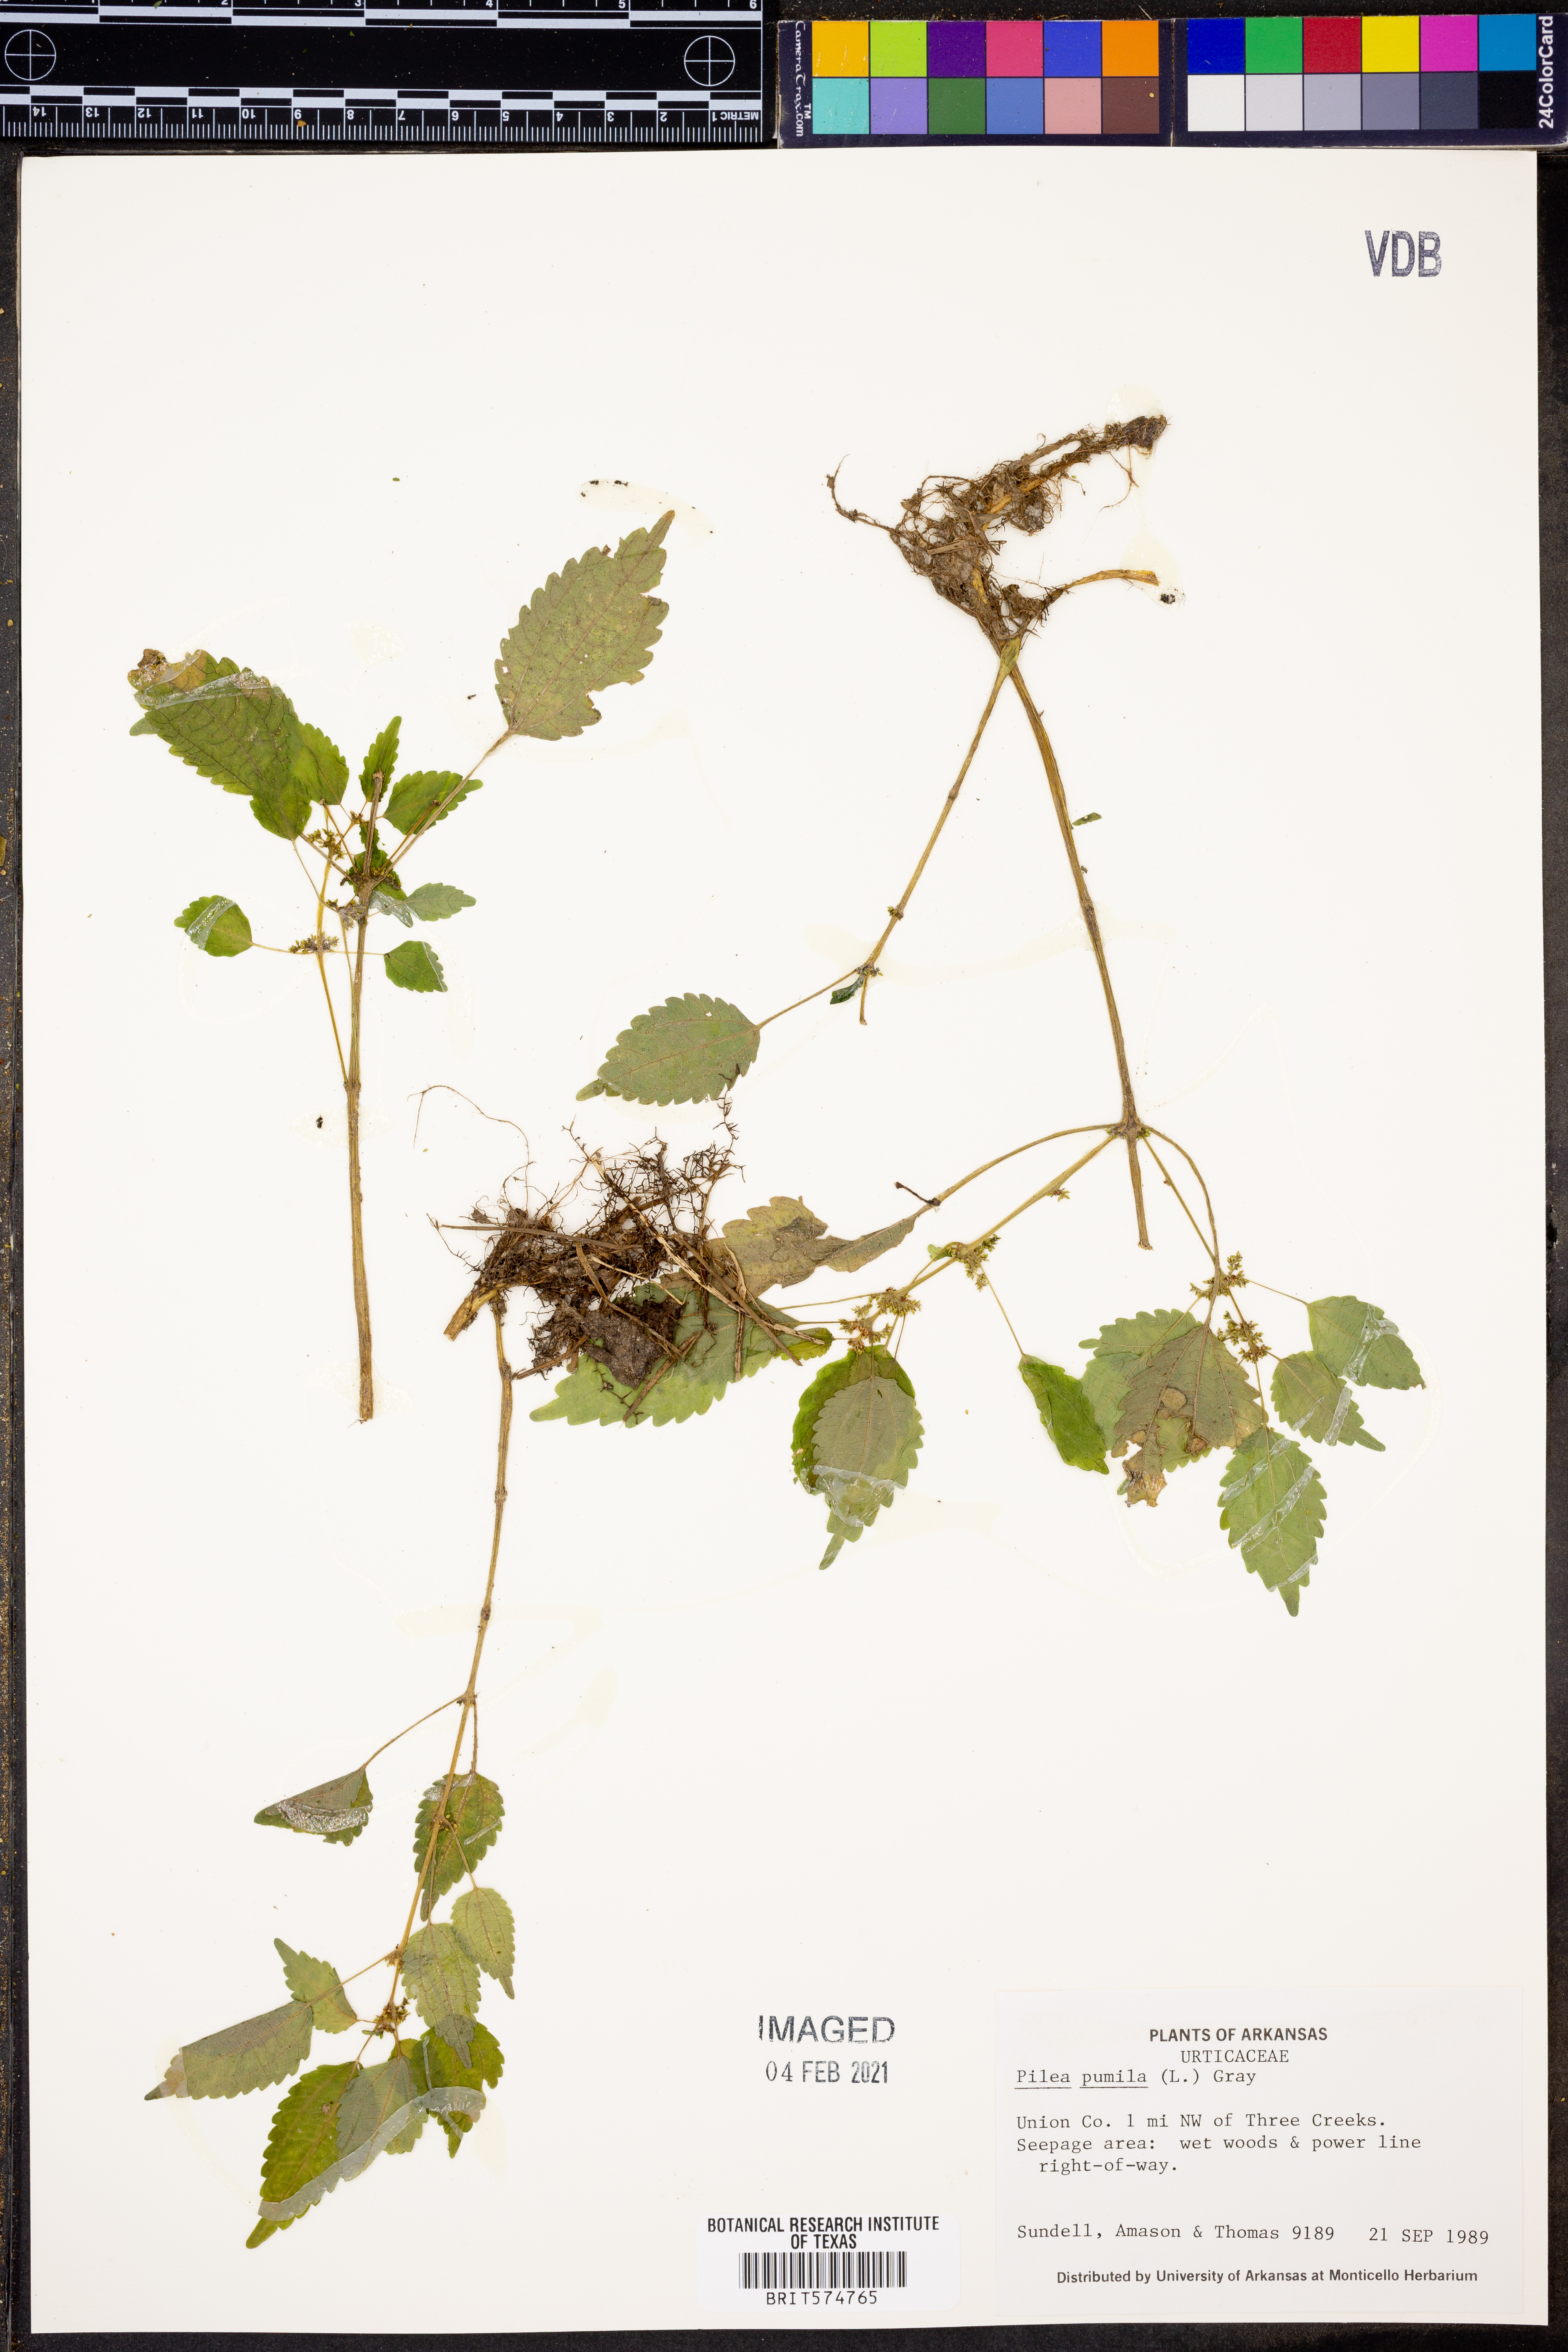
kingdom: Plantae
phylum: Tracheophyta
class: Magnoliopsida
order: Rosales
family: Urticaceae
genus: Pilea
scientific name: Pilea pumila
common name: Clearweed
